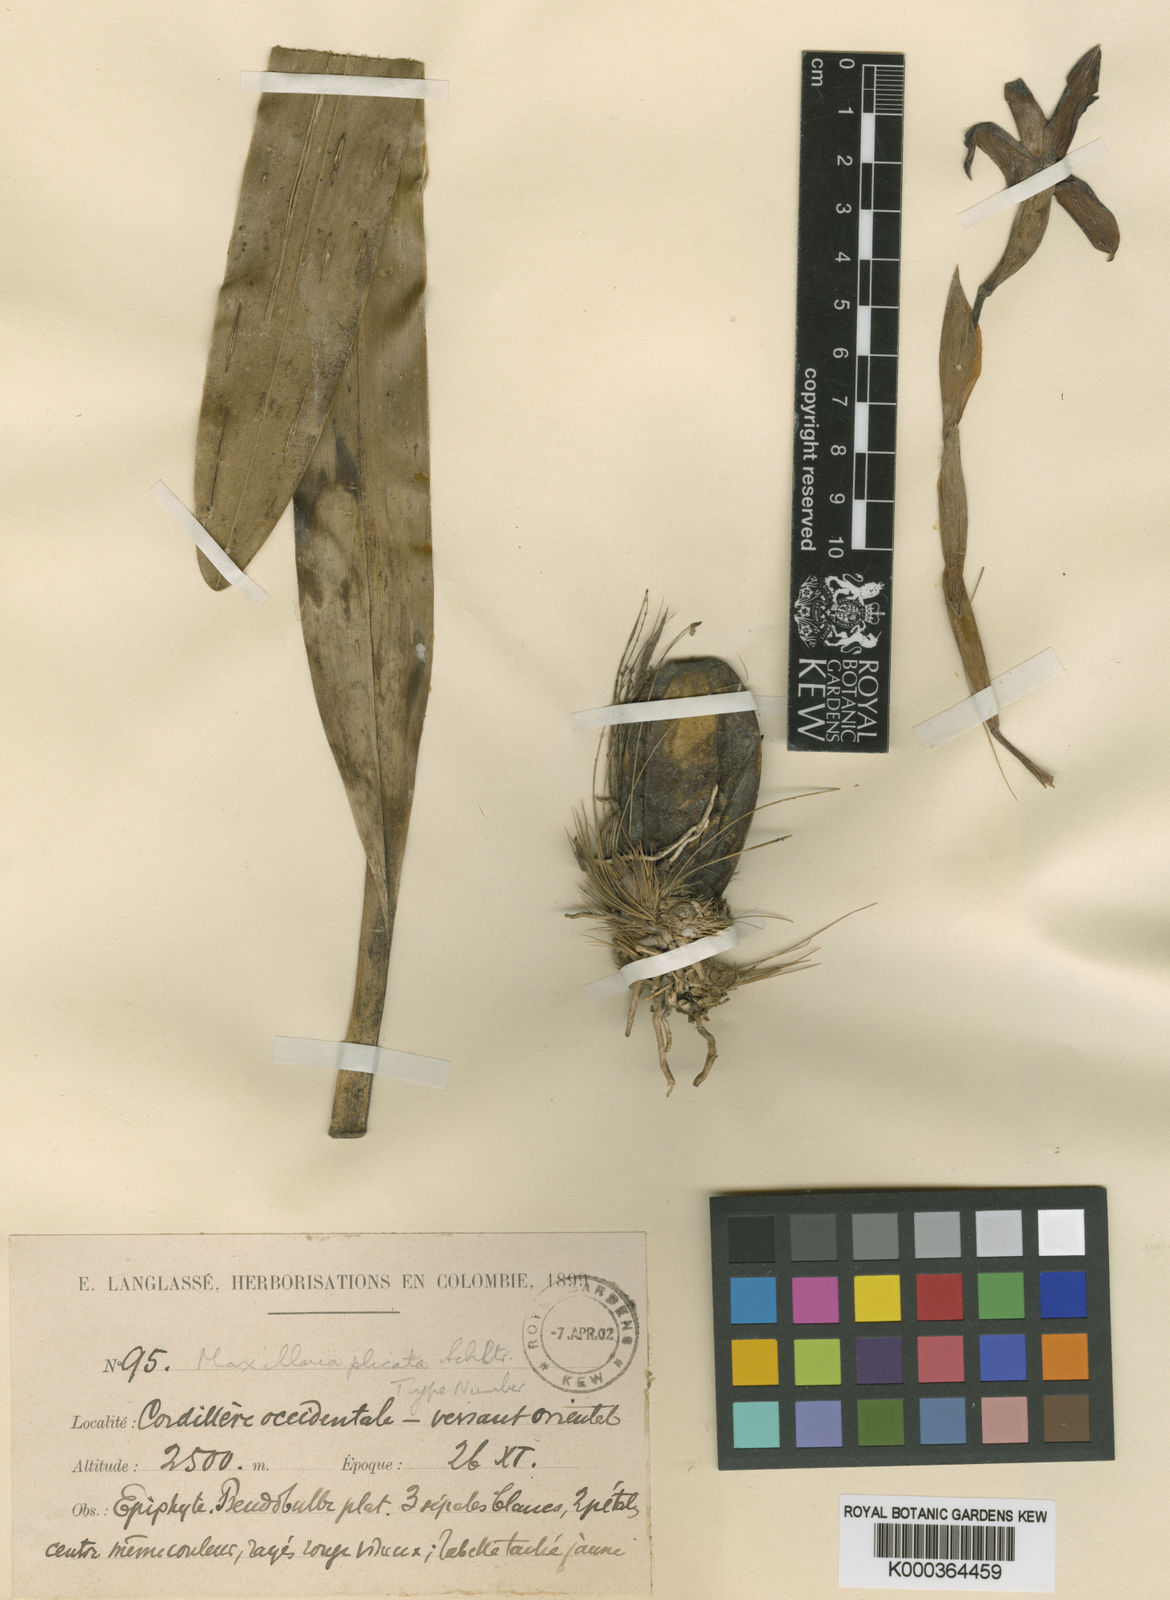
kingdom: Plantae
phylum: Tracheophyta
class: Liliopsida
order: Asparagales
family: Orchidaceae
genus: Maxillaria
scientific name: Maxillaria plicata
